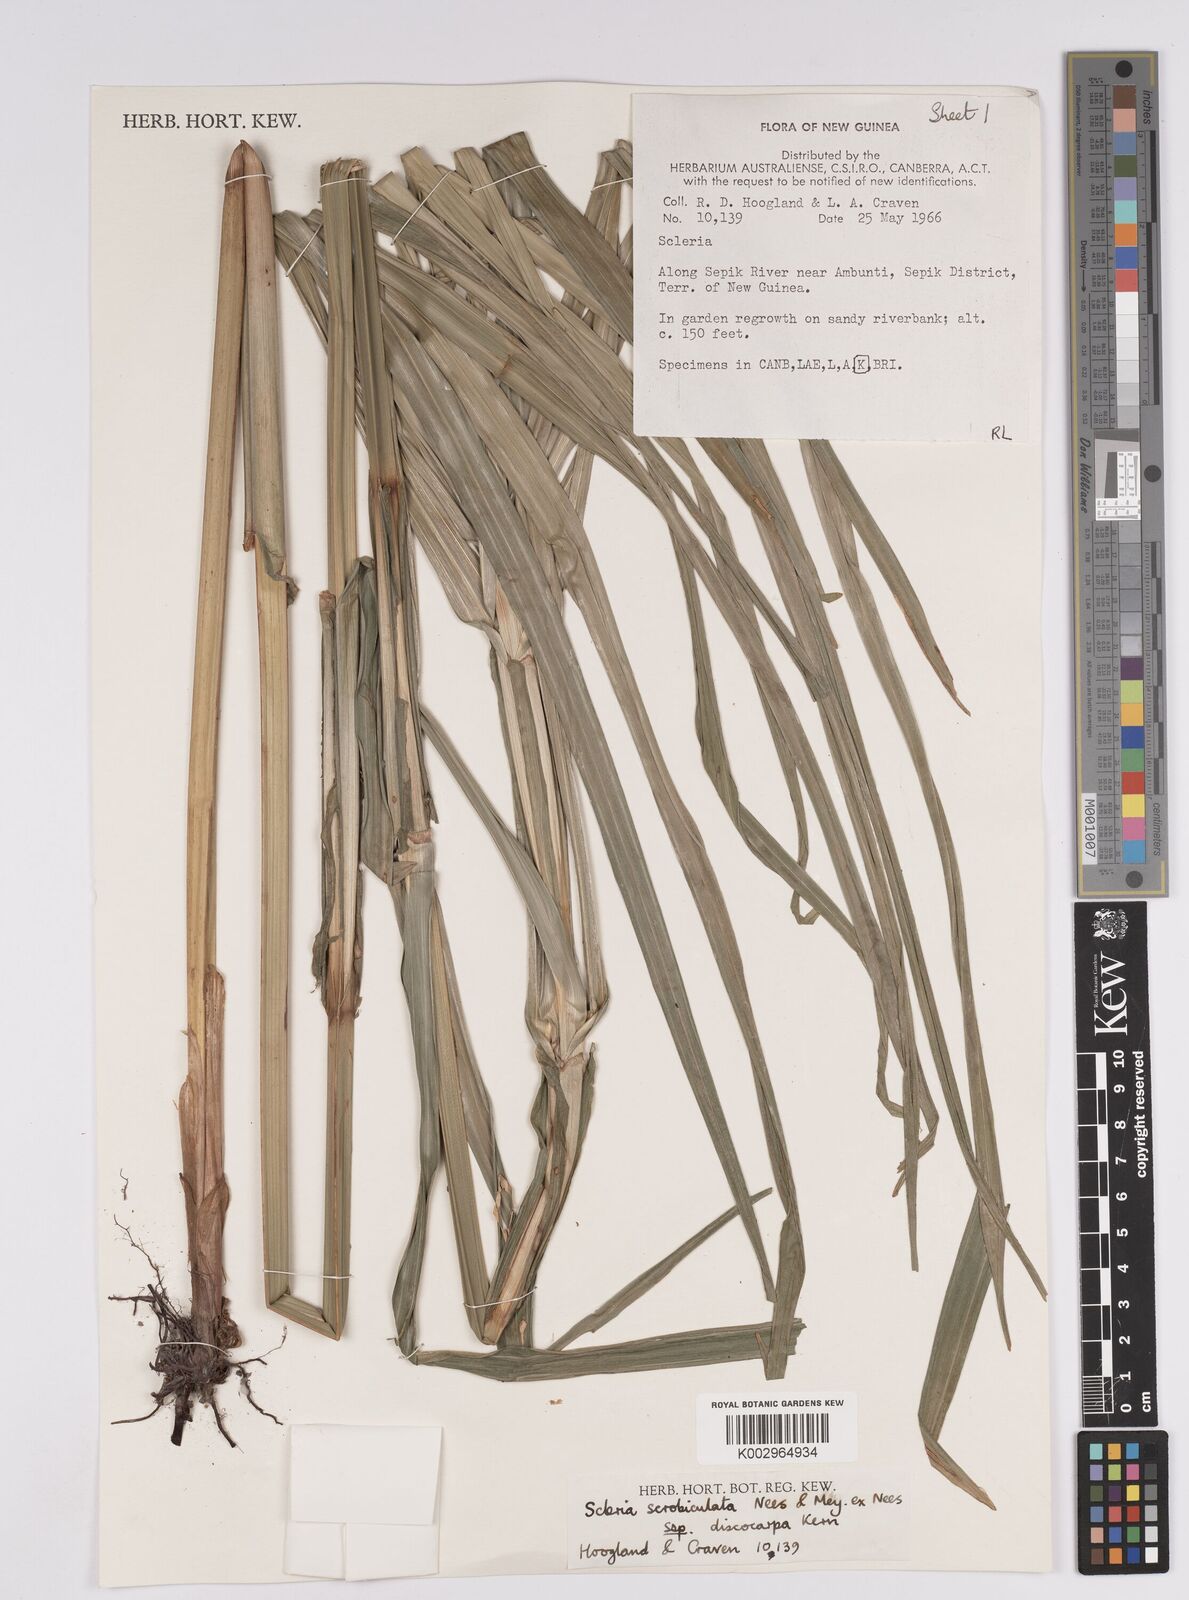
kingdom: Plantae
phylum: Tracheophyta
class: Liliopsida
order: Poales
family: Cyperaceae
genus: Scleria
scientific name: Scleria scrobiculata
